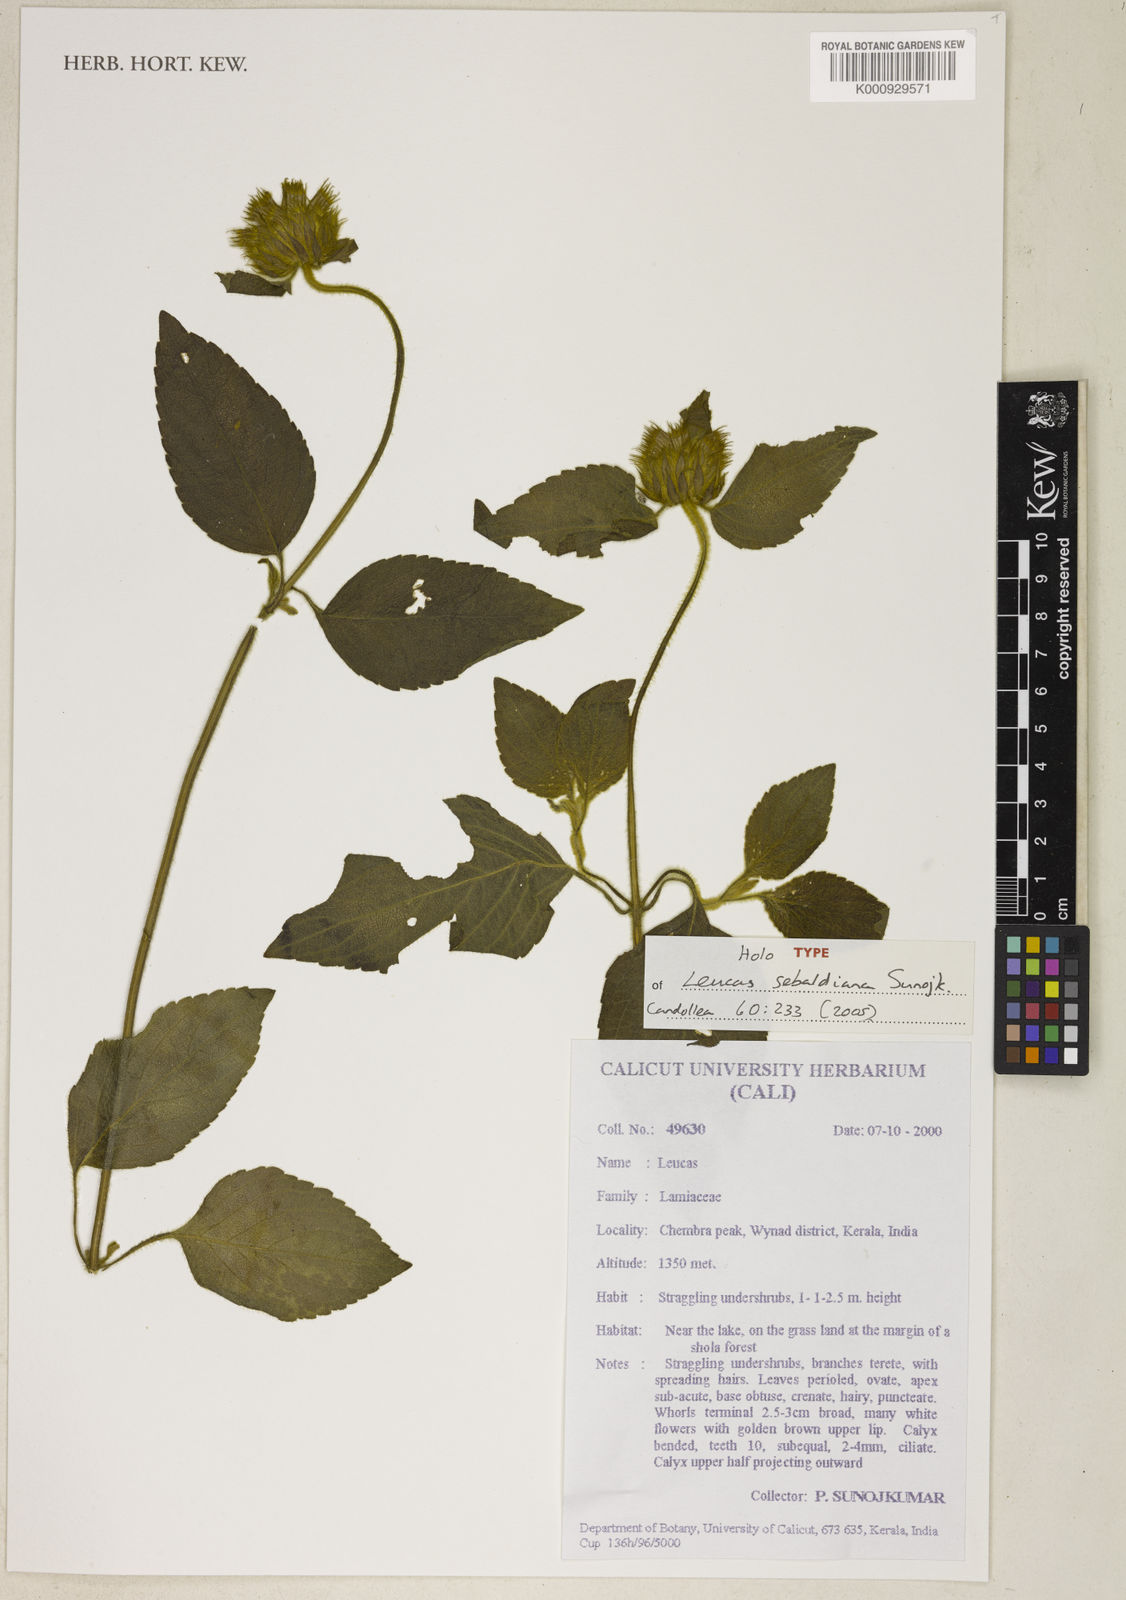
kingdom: Plantae
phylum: Tracheophyta
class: Magnoliopsida
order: Lamiales
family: Lamiaceae
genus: Leucas
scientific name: Leucas sebaldiana
